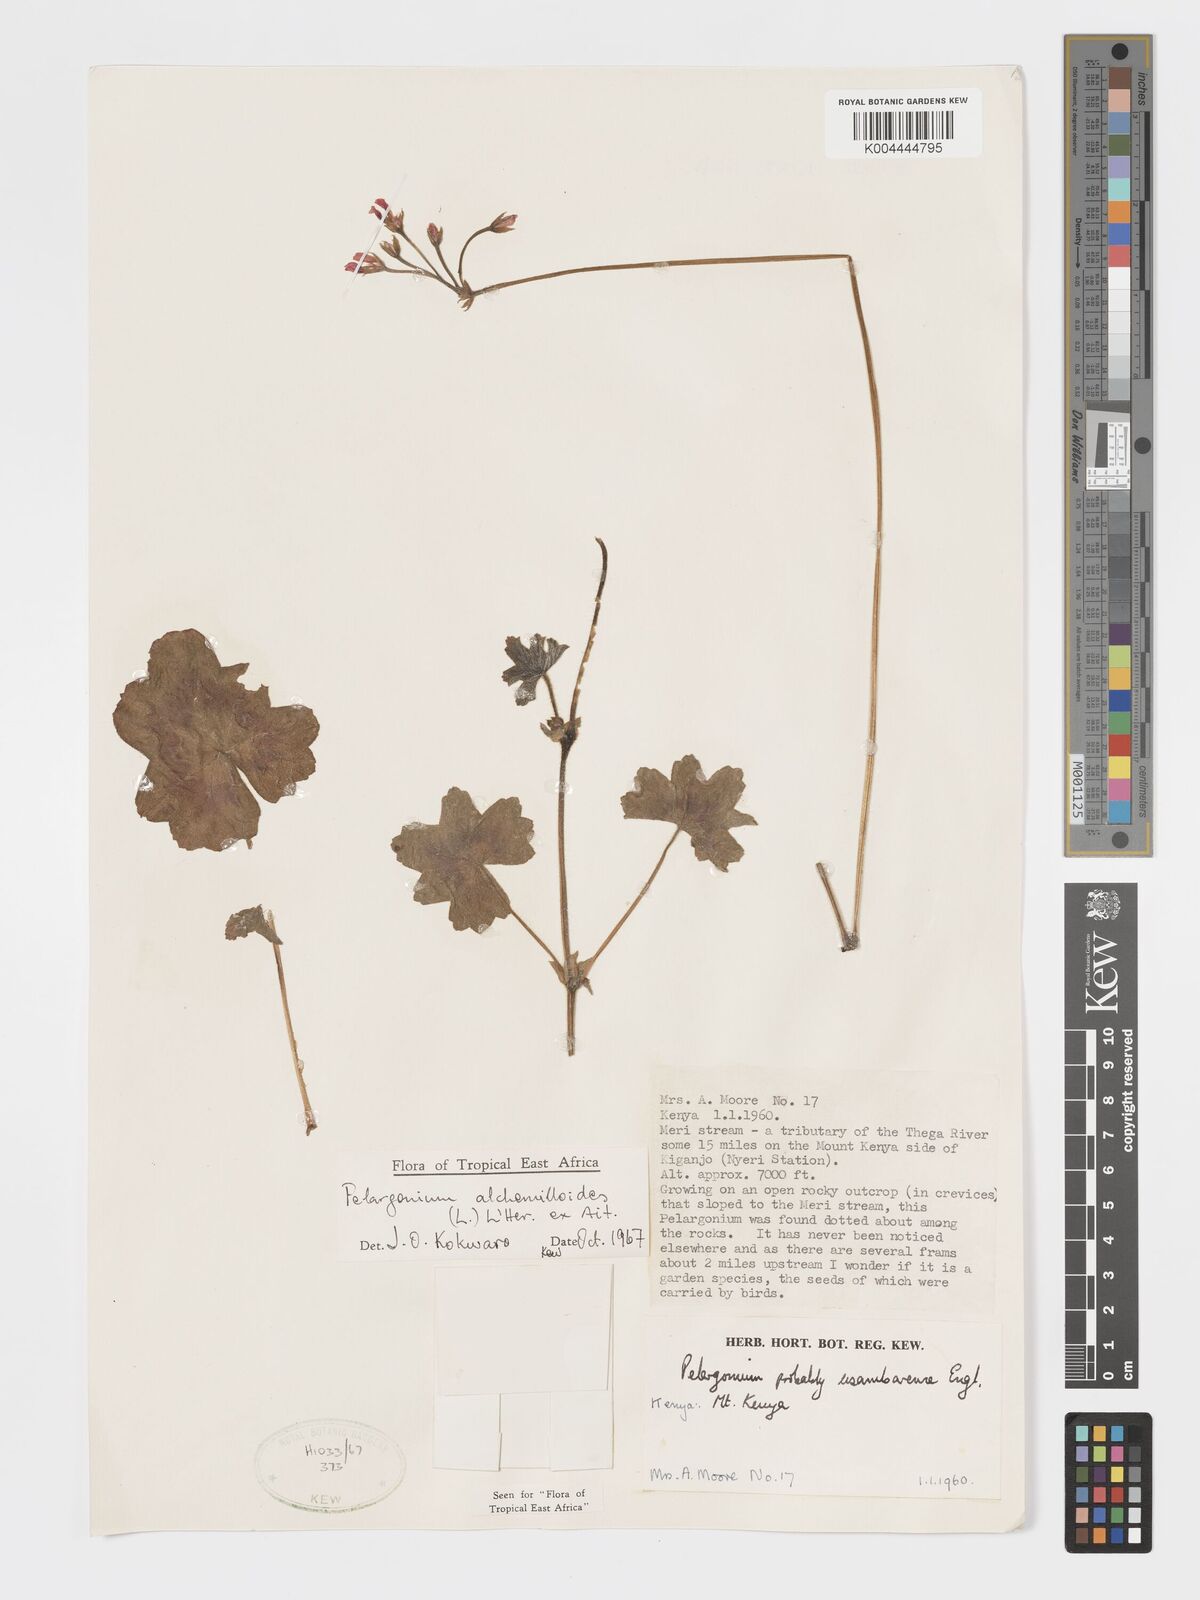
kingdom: Plantae
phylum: Tracheophyta
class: Magnoliopsida
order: Geraniales
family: Geraniaceae
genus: Pelargonium
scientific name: Pelargonium alchemilloides
